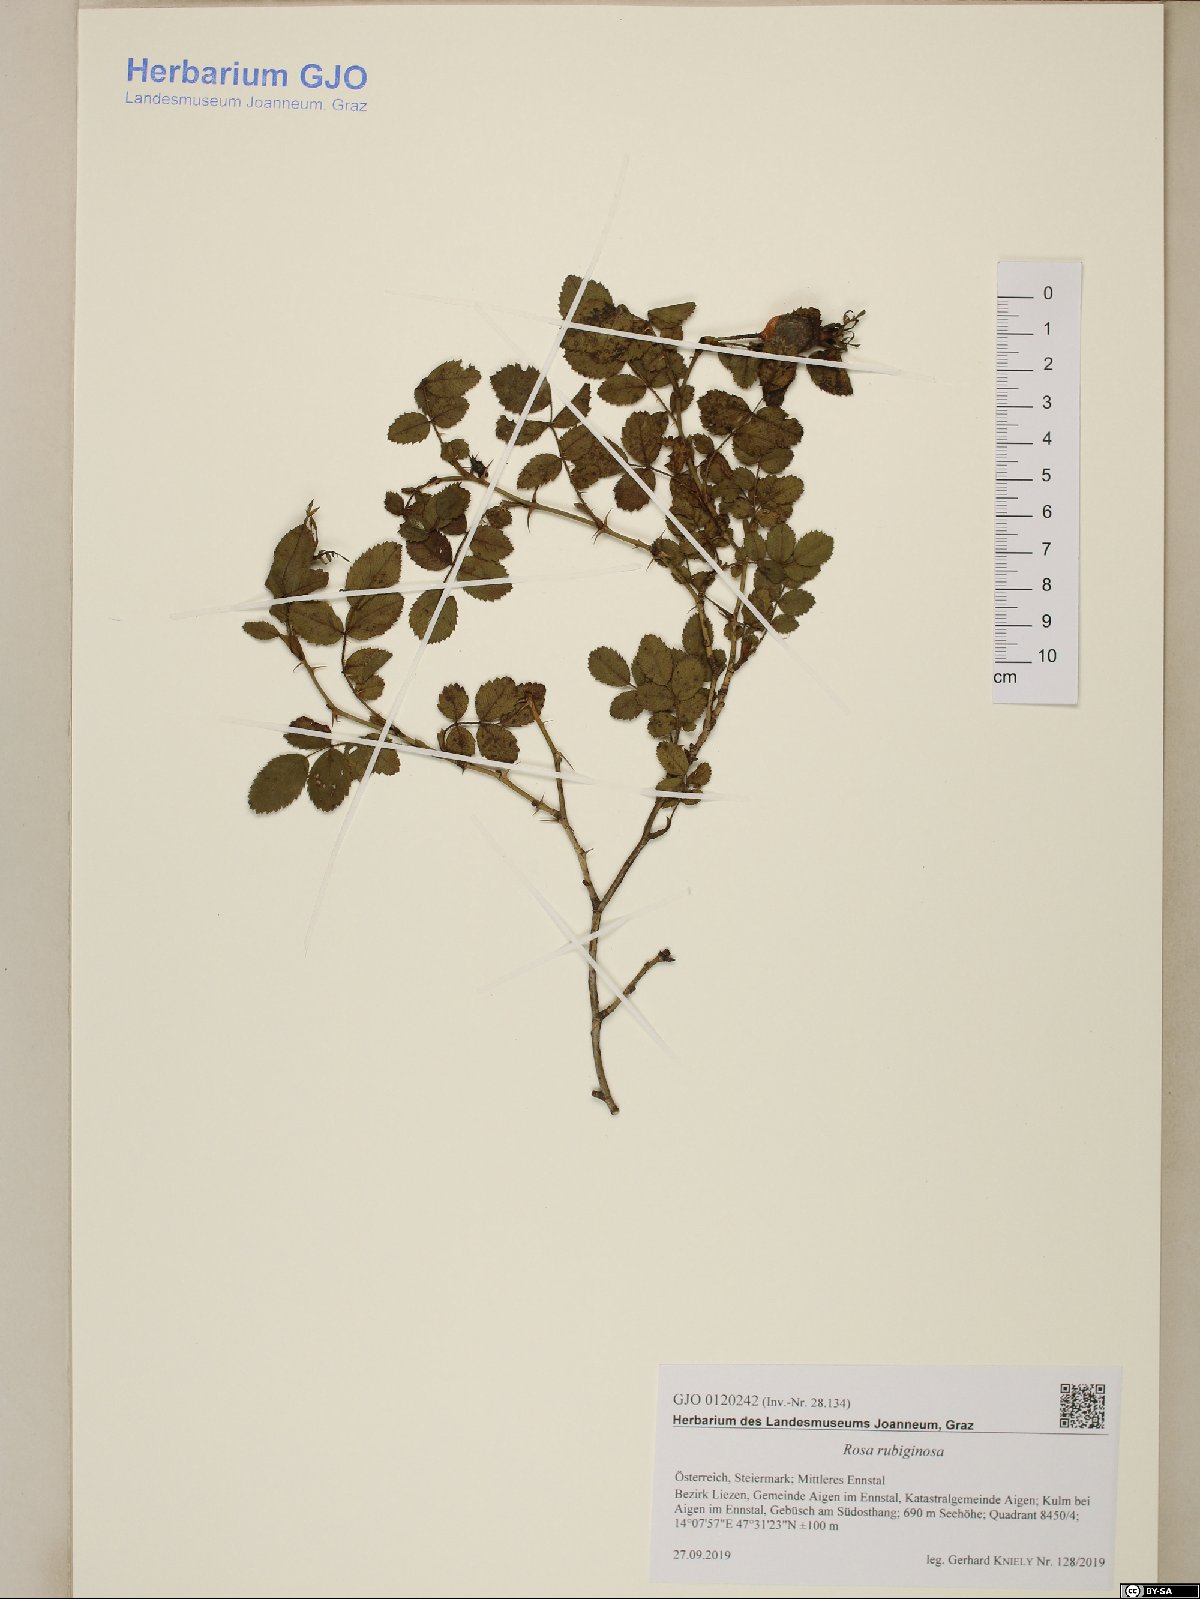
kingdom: Plantae
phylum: Tracheophyta
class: Magnoliopsida
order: Rosales
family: Rosaceae
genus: Rosa
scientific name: Rosa rubiginosa
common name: Sweet-briar
